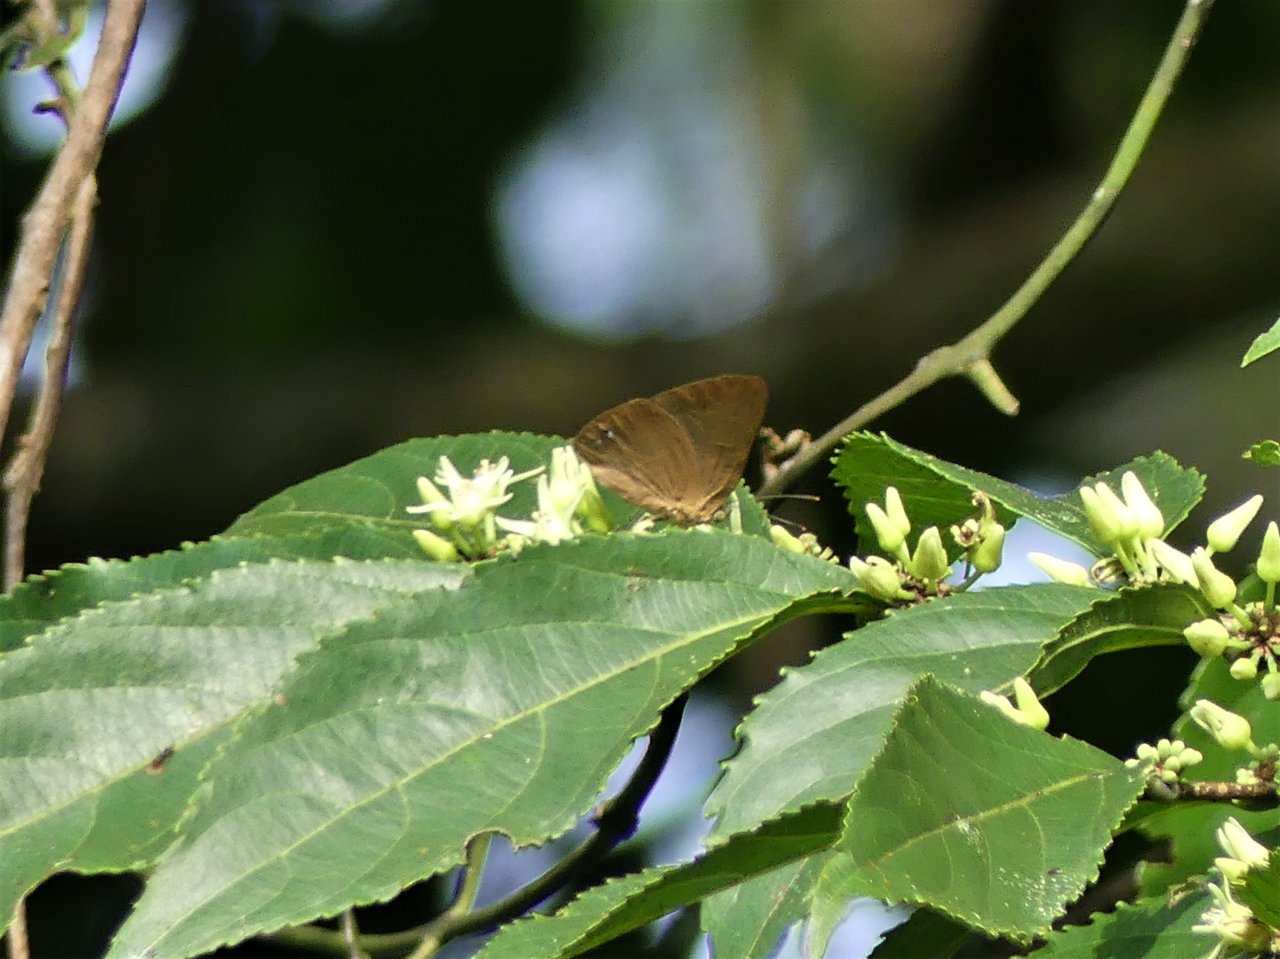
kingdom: Animalia
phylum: Arthropoda
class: Insecta
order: Lepidoptera
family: Nymphalidae
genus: Ethope
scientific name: Ethope
